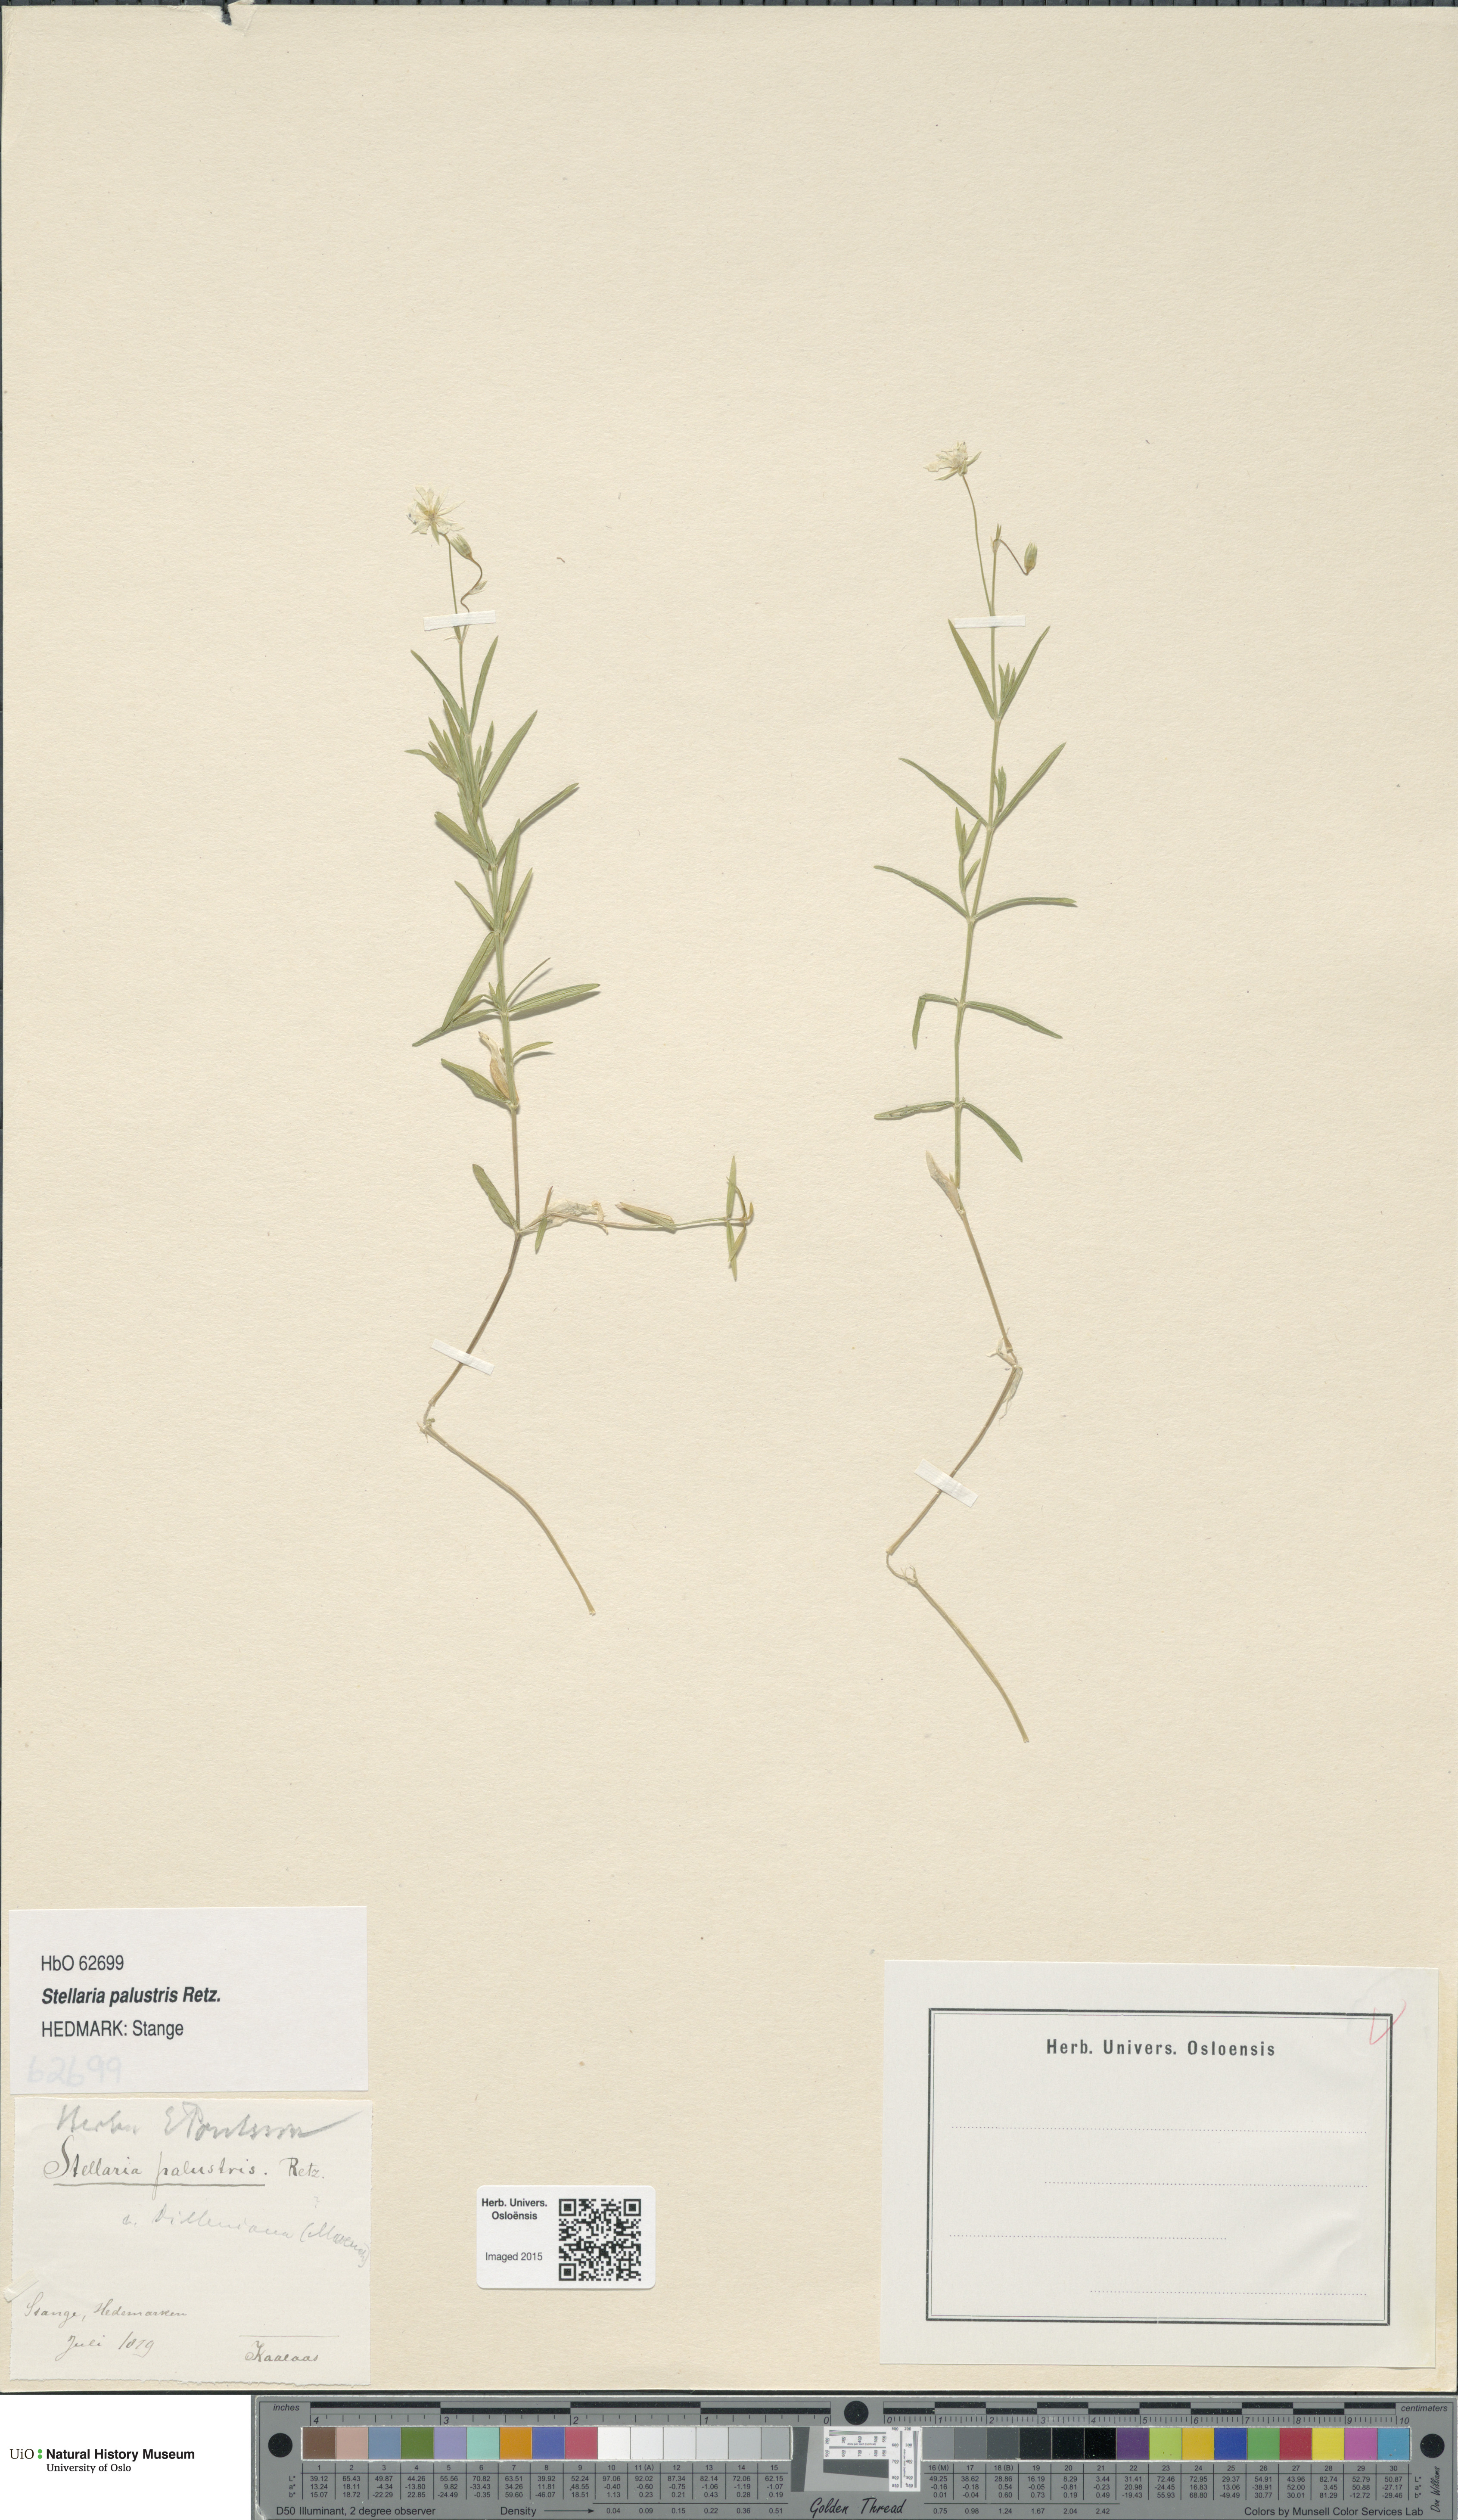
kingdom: Plantae
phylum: Tracheophyta
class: Magnoliopsida
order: Caryophyllales
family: Caryophyllaceae
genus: Stellaria
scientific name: Stellaria palustris
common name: Marsh stitchwort
